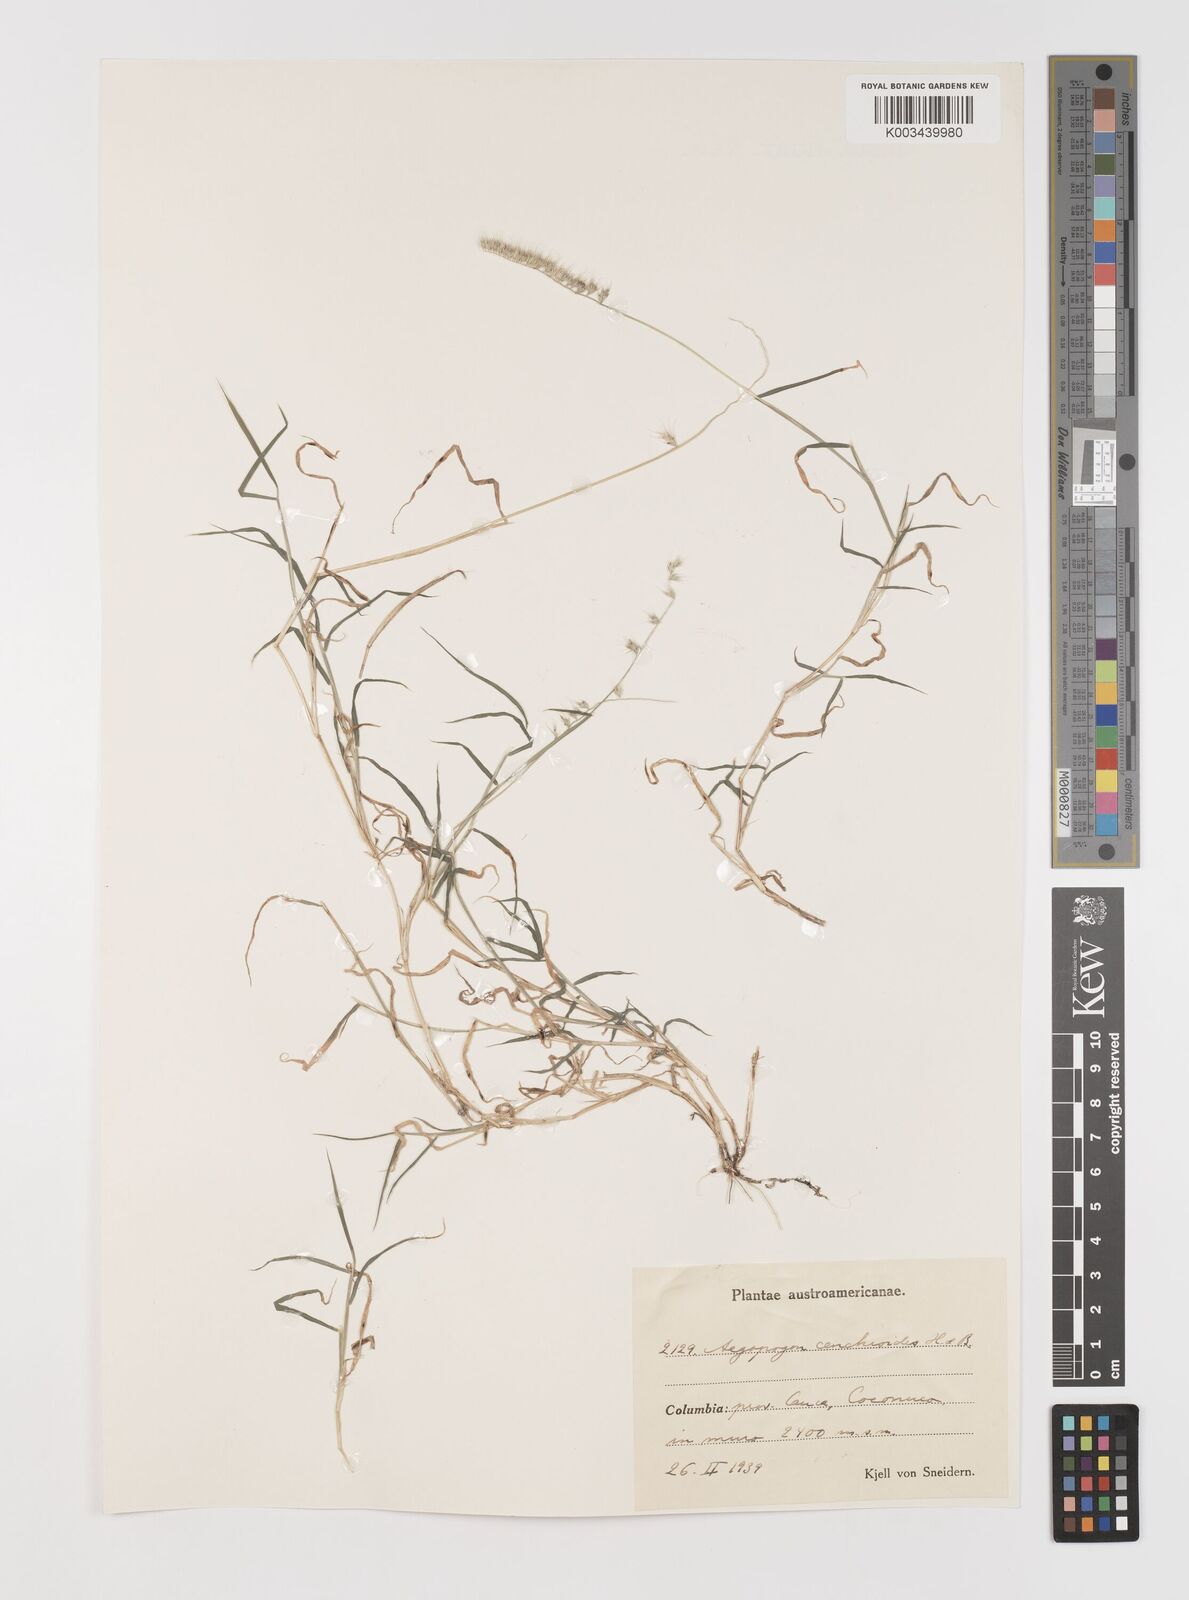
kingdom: Plantae
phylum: Tracheophyta
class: Liliopsida
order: Poales
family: Poaceae
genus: Muhlenbergia
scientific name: Muhlenbergia cenchroides
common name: Relaxgrass
